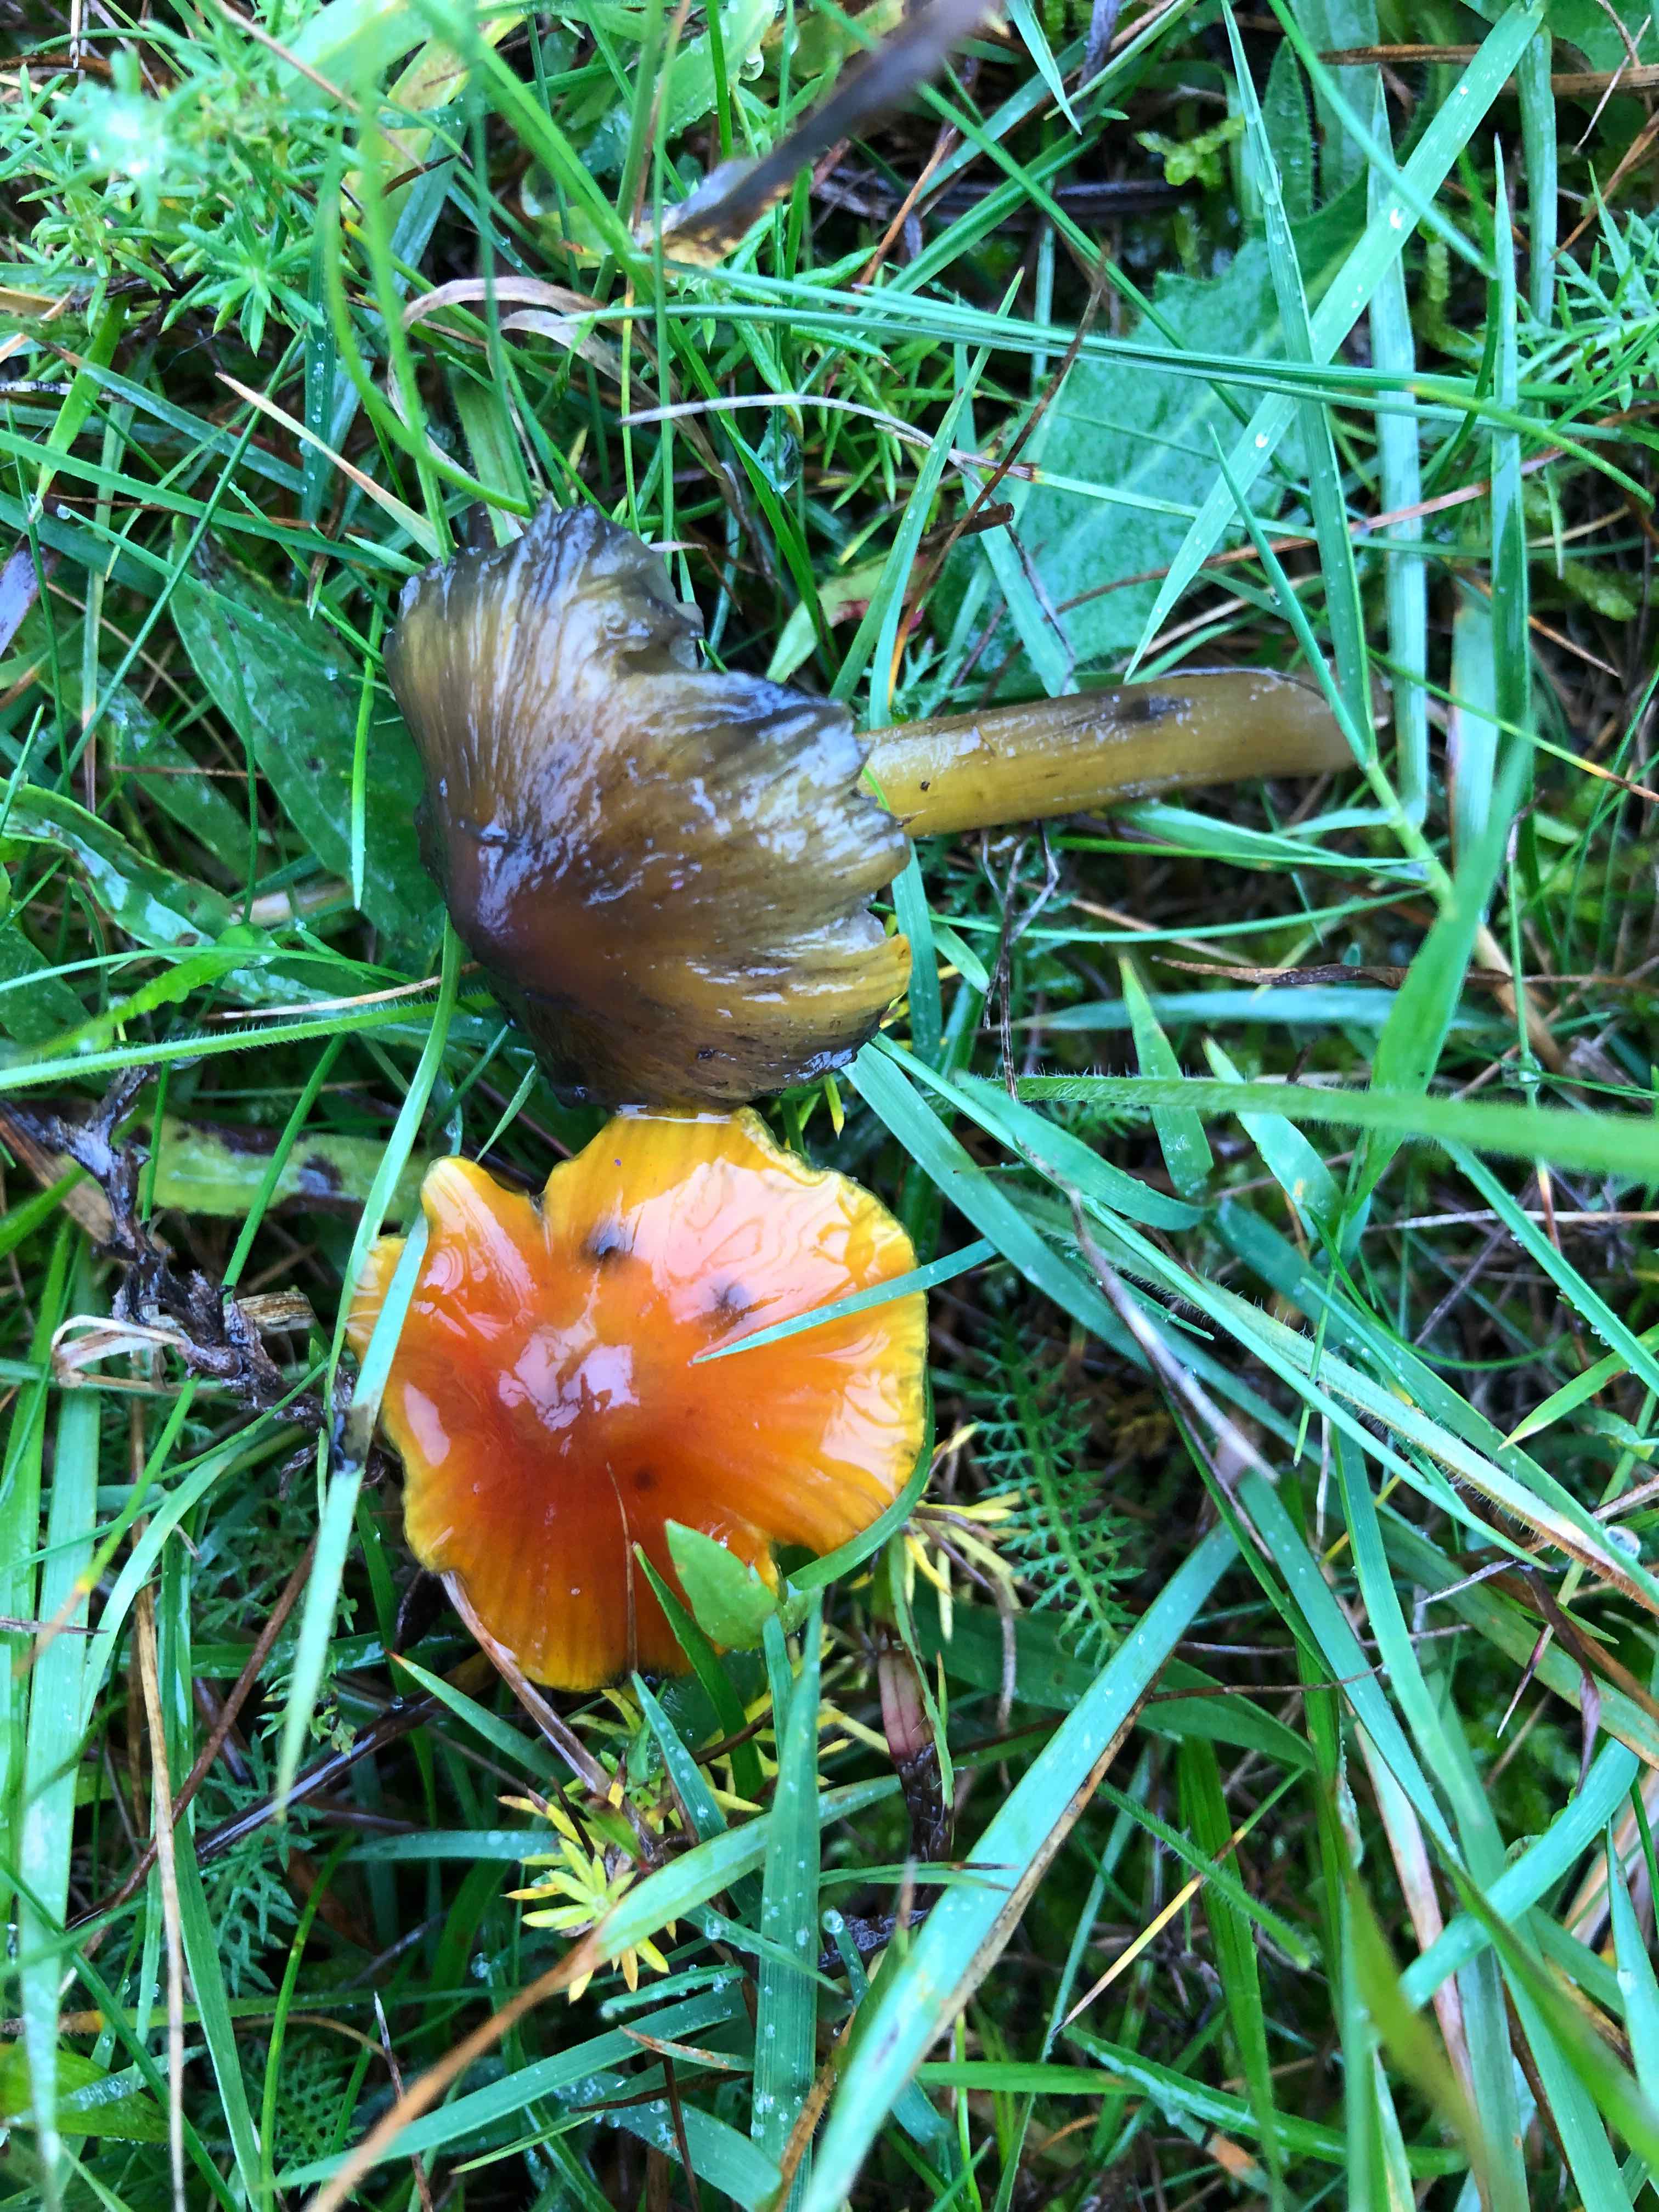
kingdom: Fungi
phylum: Basidiomycota
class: Agaricomycetes
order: Agaricales
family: Hygrophoraceae
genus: Hygrocybe
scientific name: Hygrocybe conica
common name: kegle-vokshat
